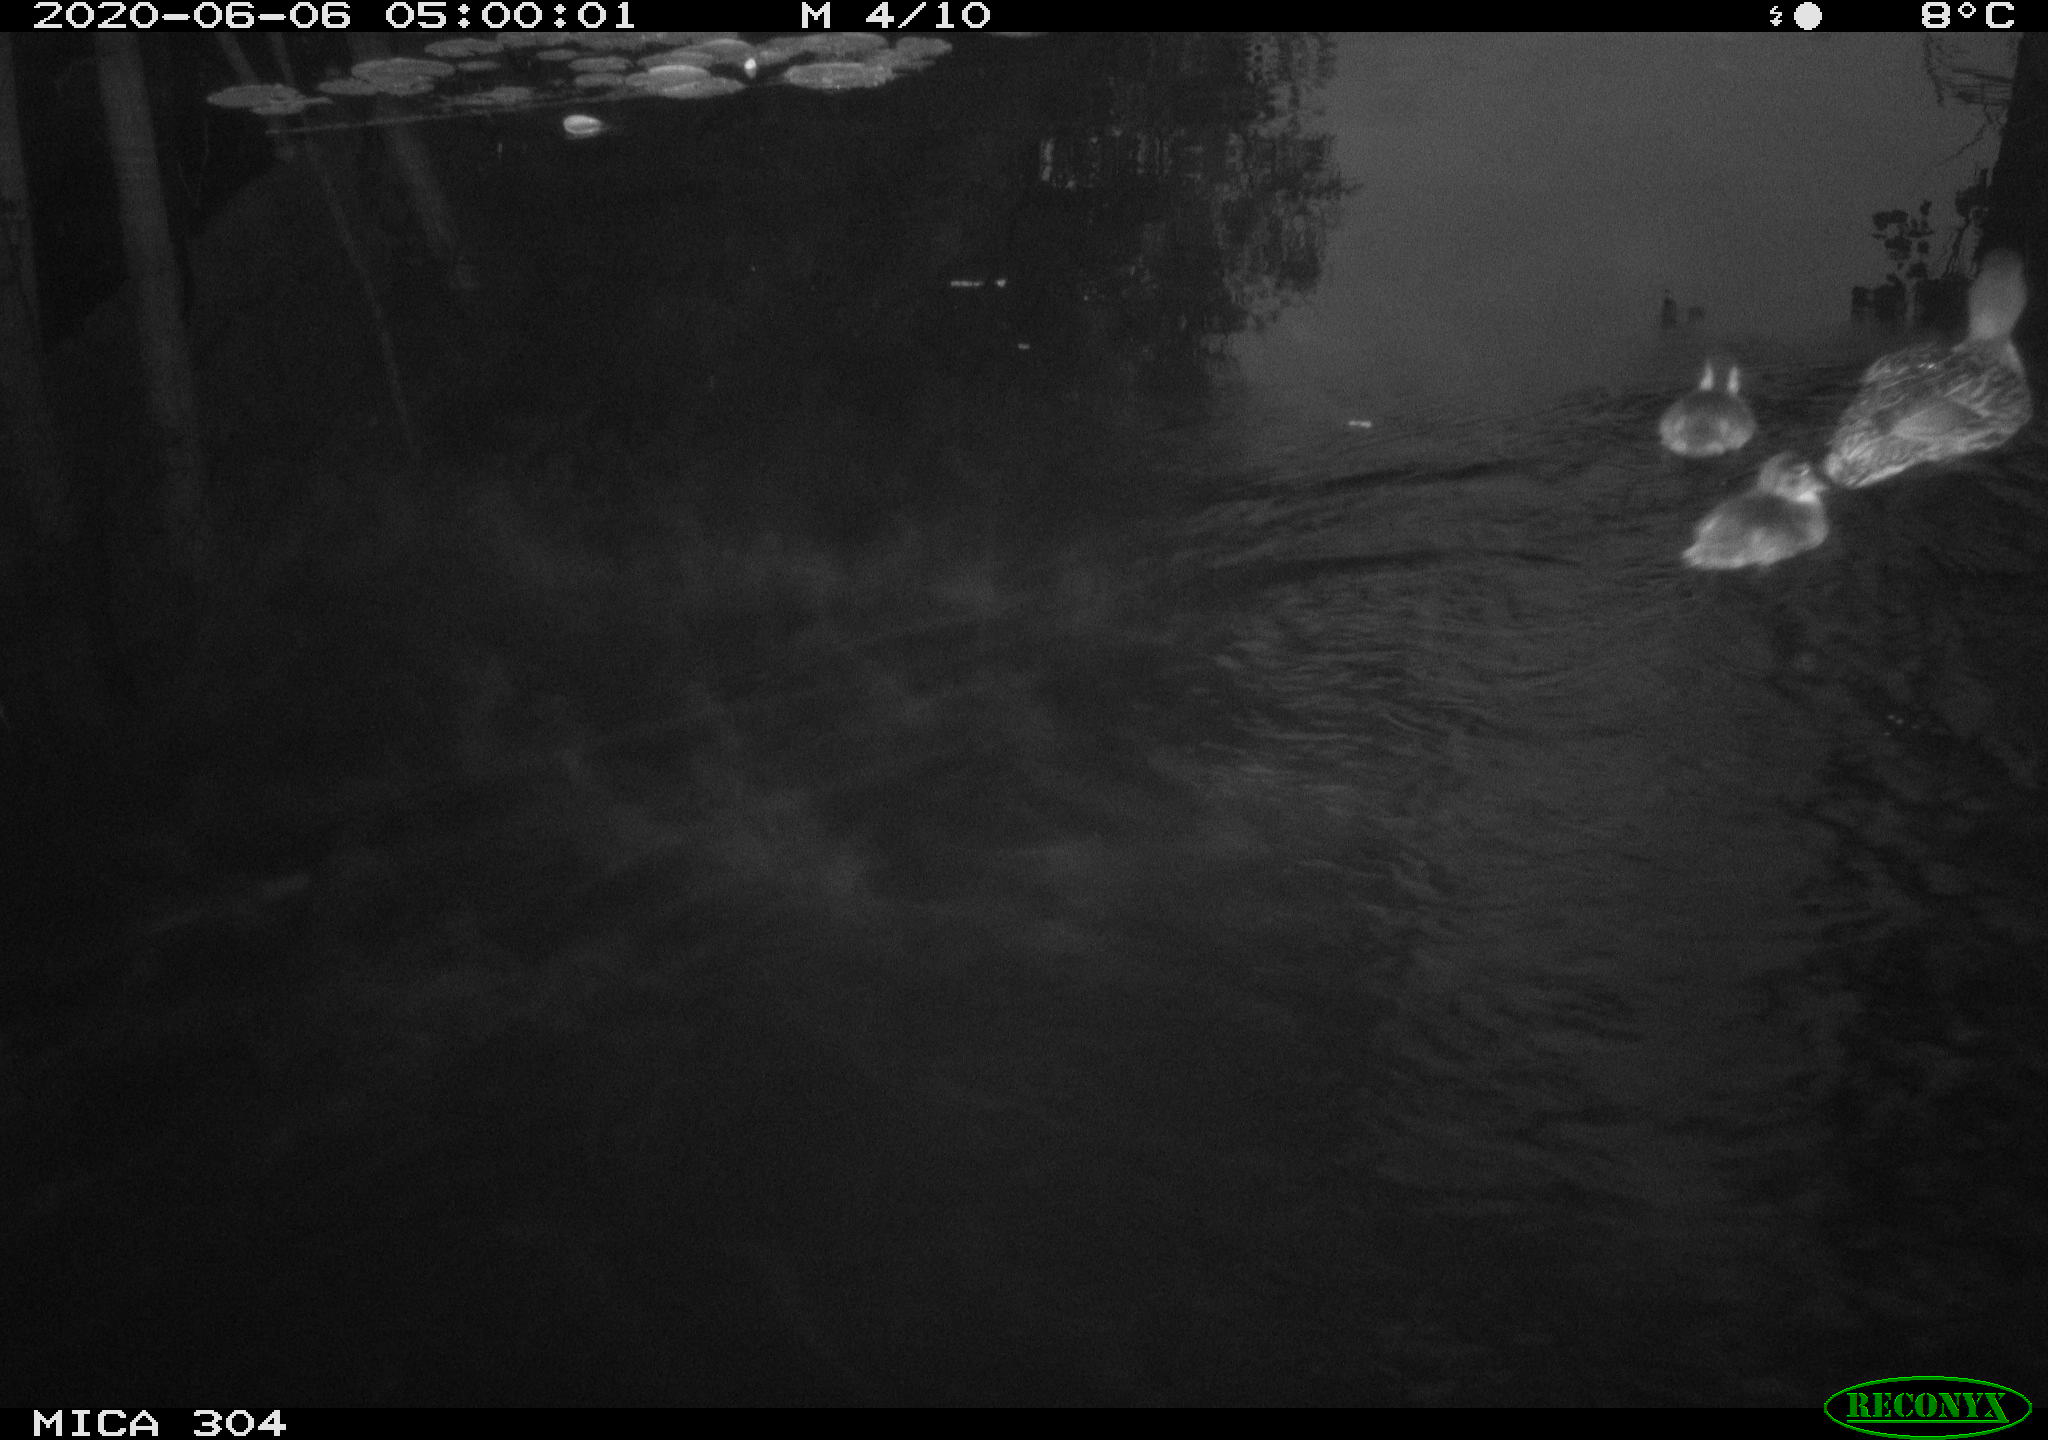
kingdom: Animalia
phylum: Chordata
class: Aves
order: Anseriformes
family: Anatidae
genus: Anas
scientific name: Anas platyrhynchos
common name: Mallard
